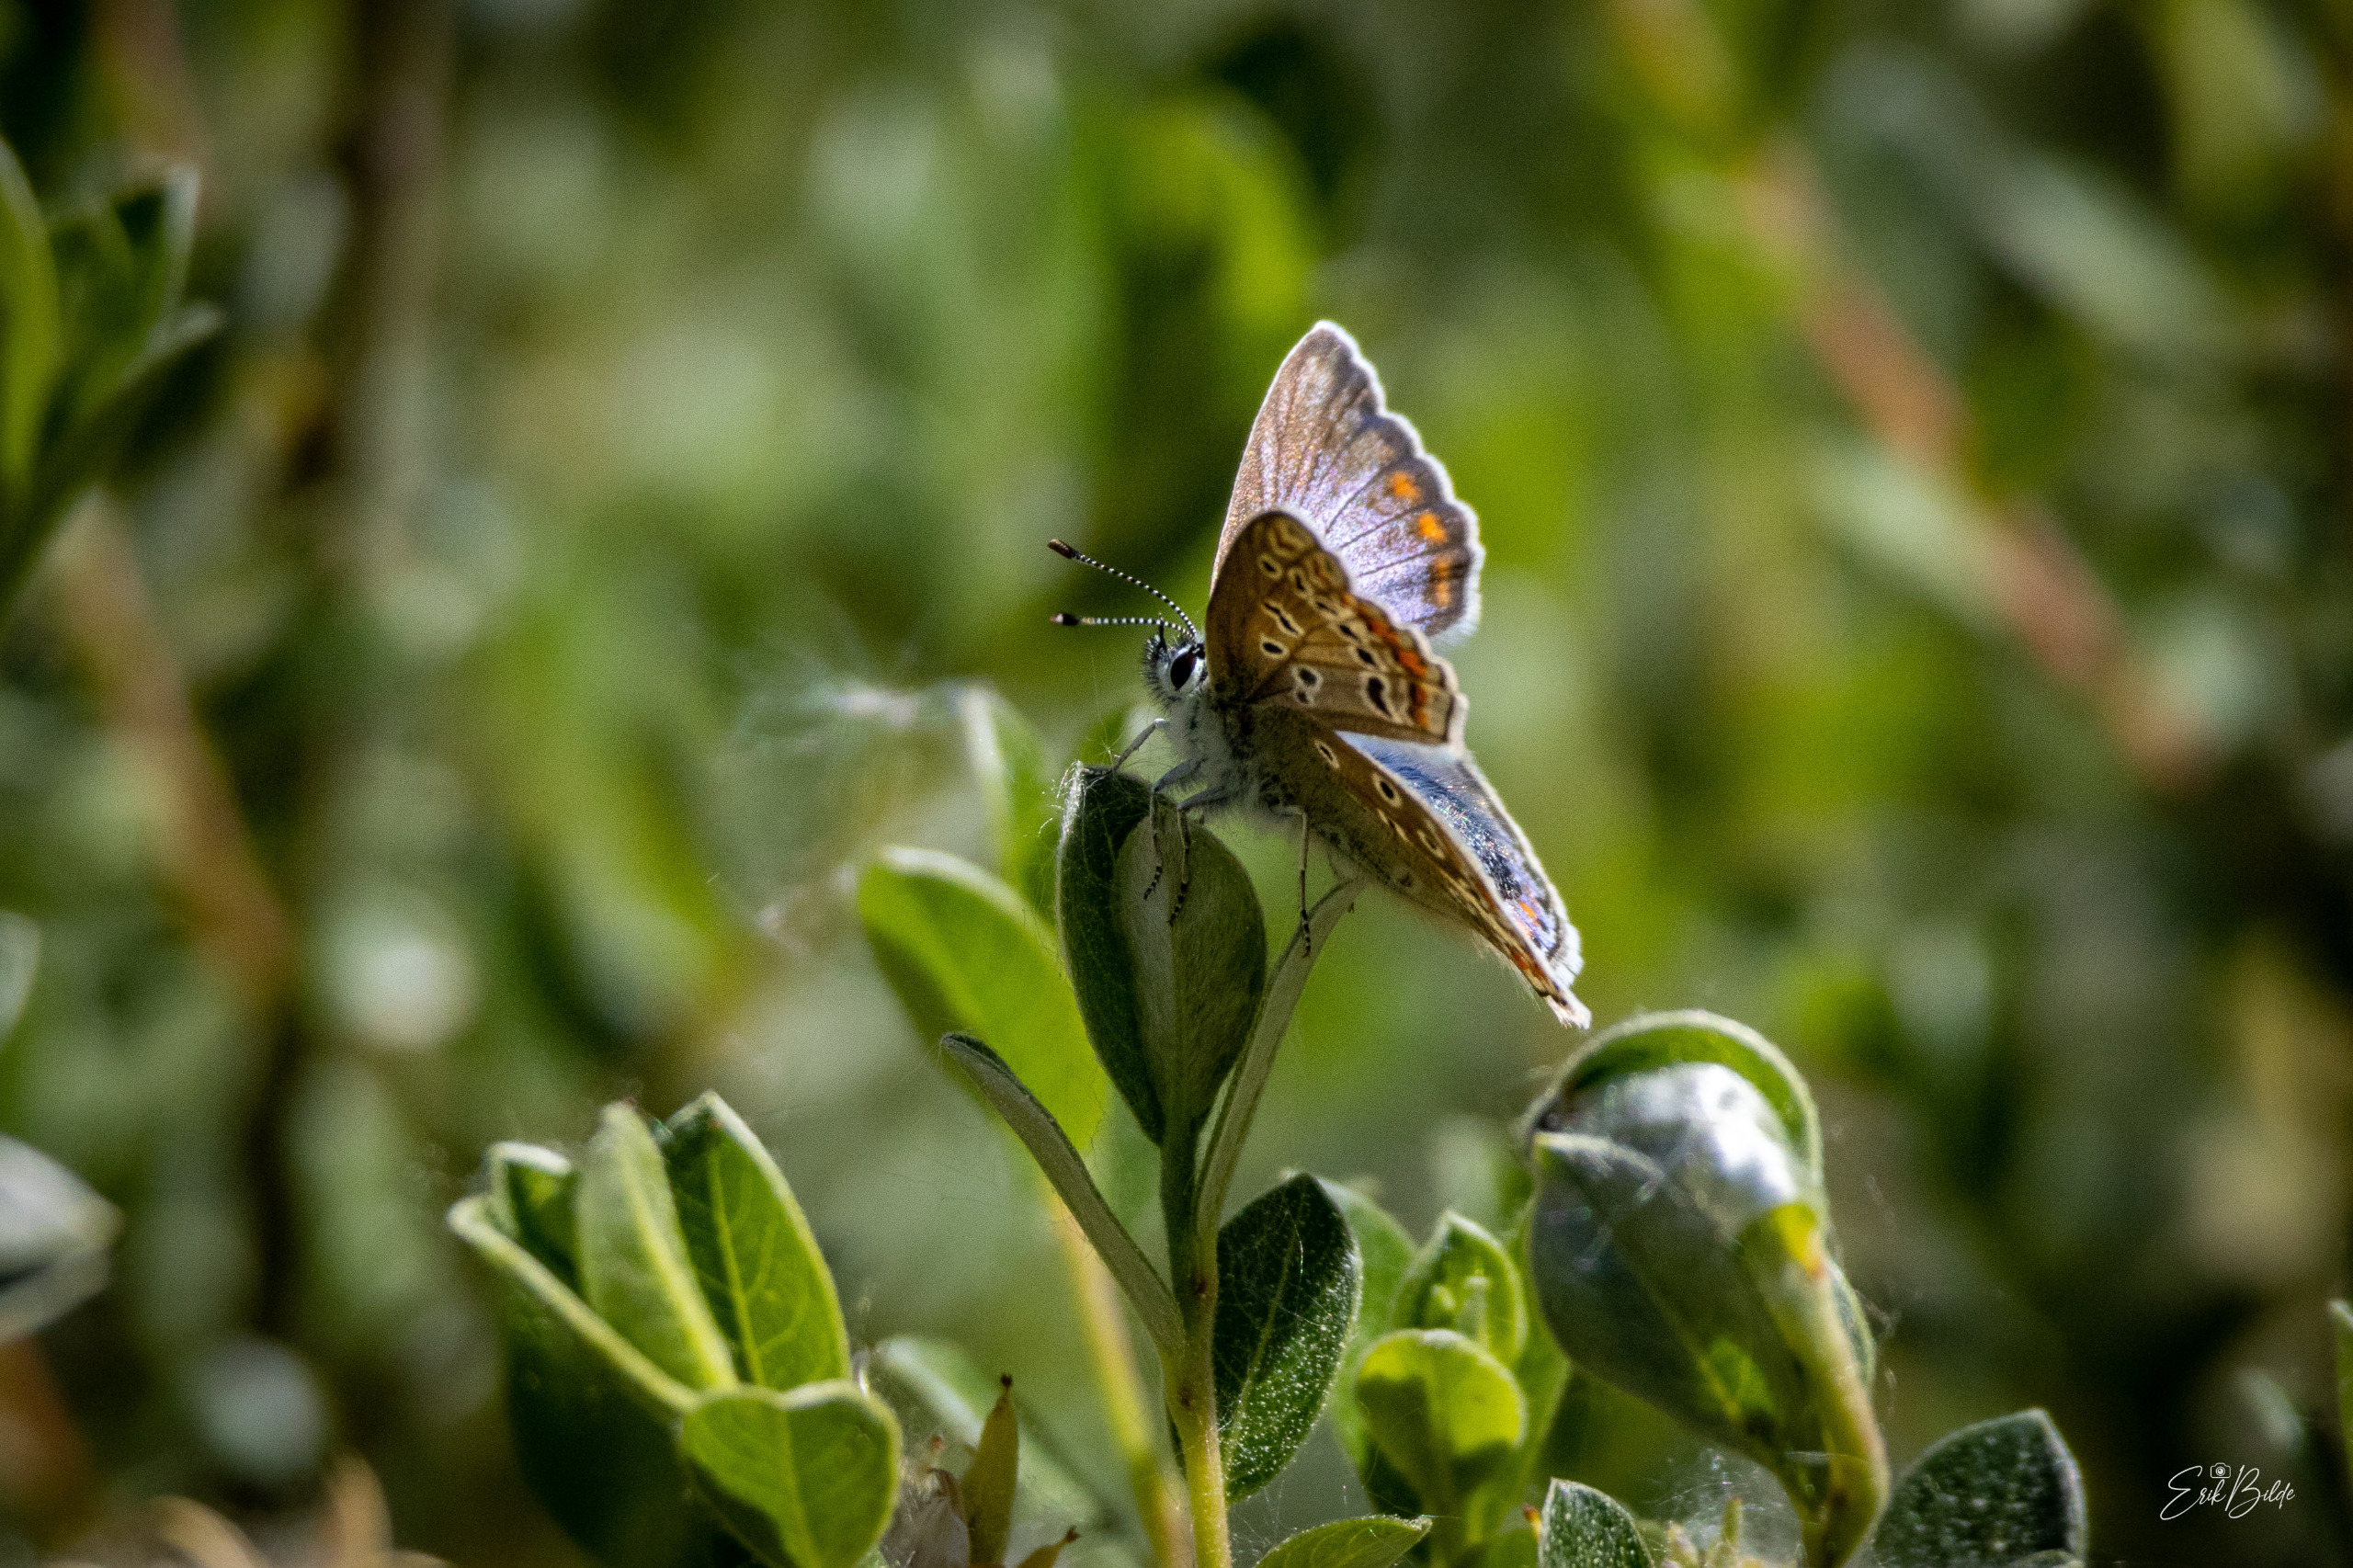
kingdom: Animalia
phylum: Arthropoda
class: Insecta
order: Lepidoptera
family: Lycaenidae
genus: Polyommatus
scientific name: Polyommatus icarus
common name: Almindelig blåfugl
